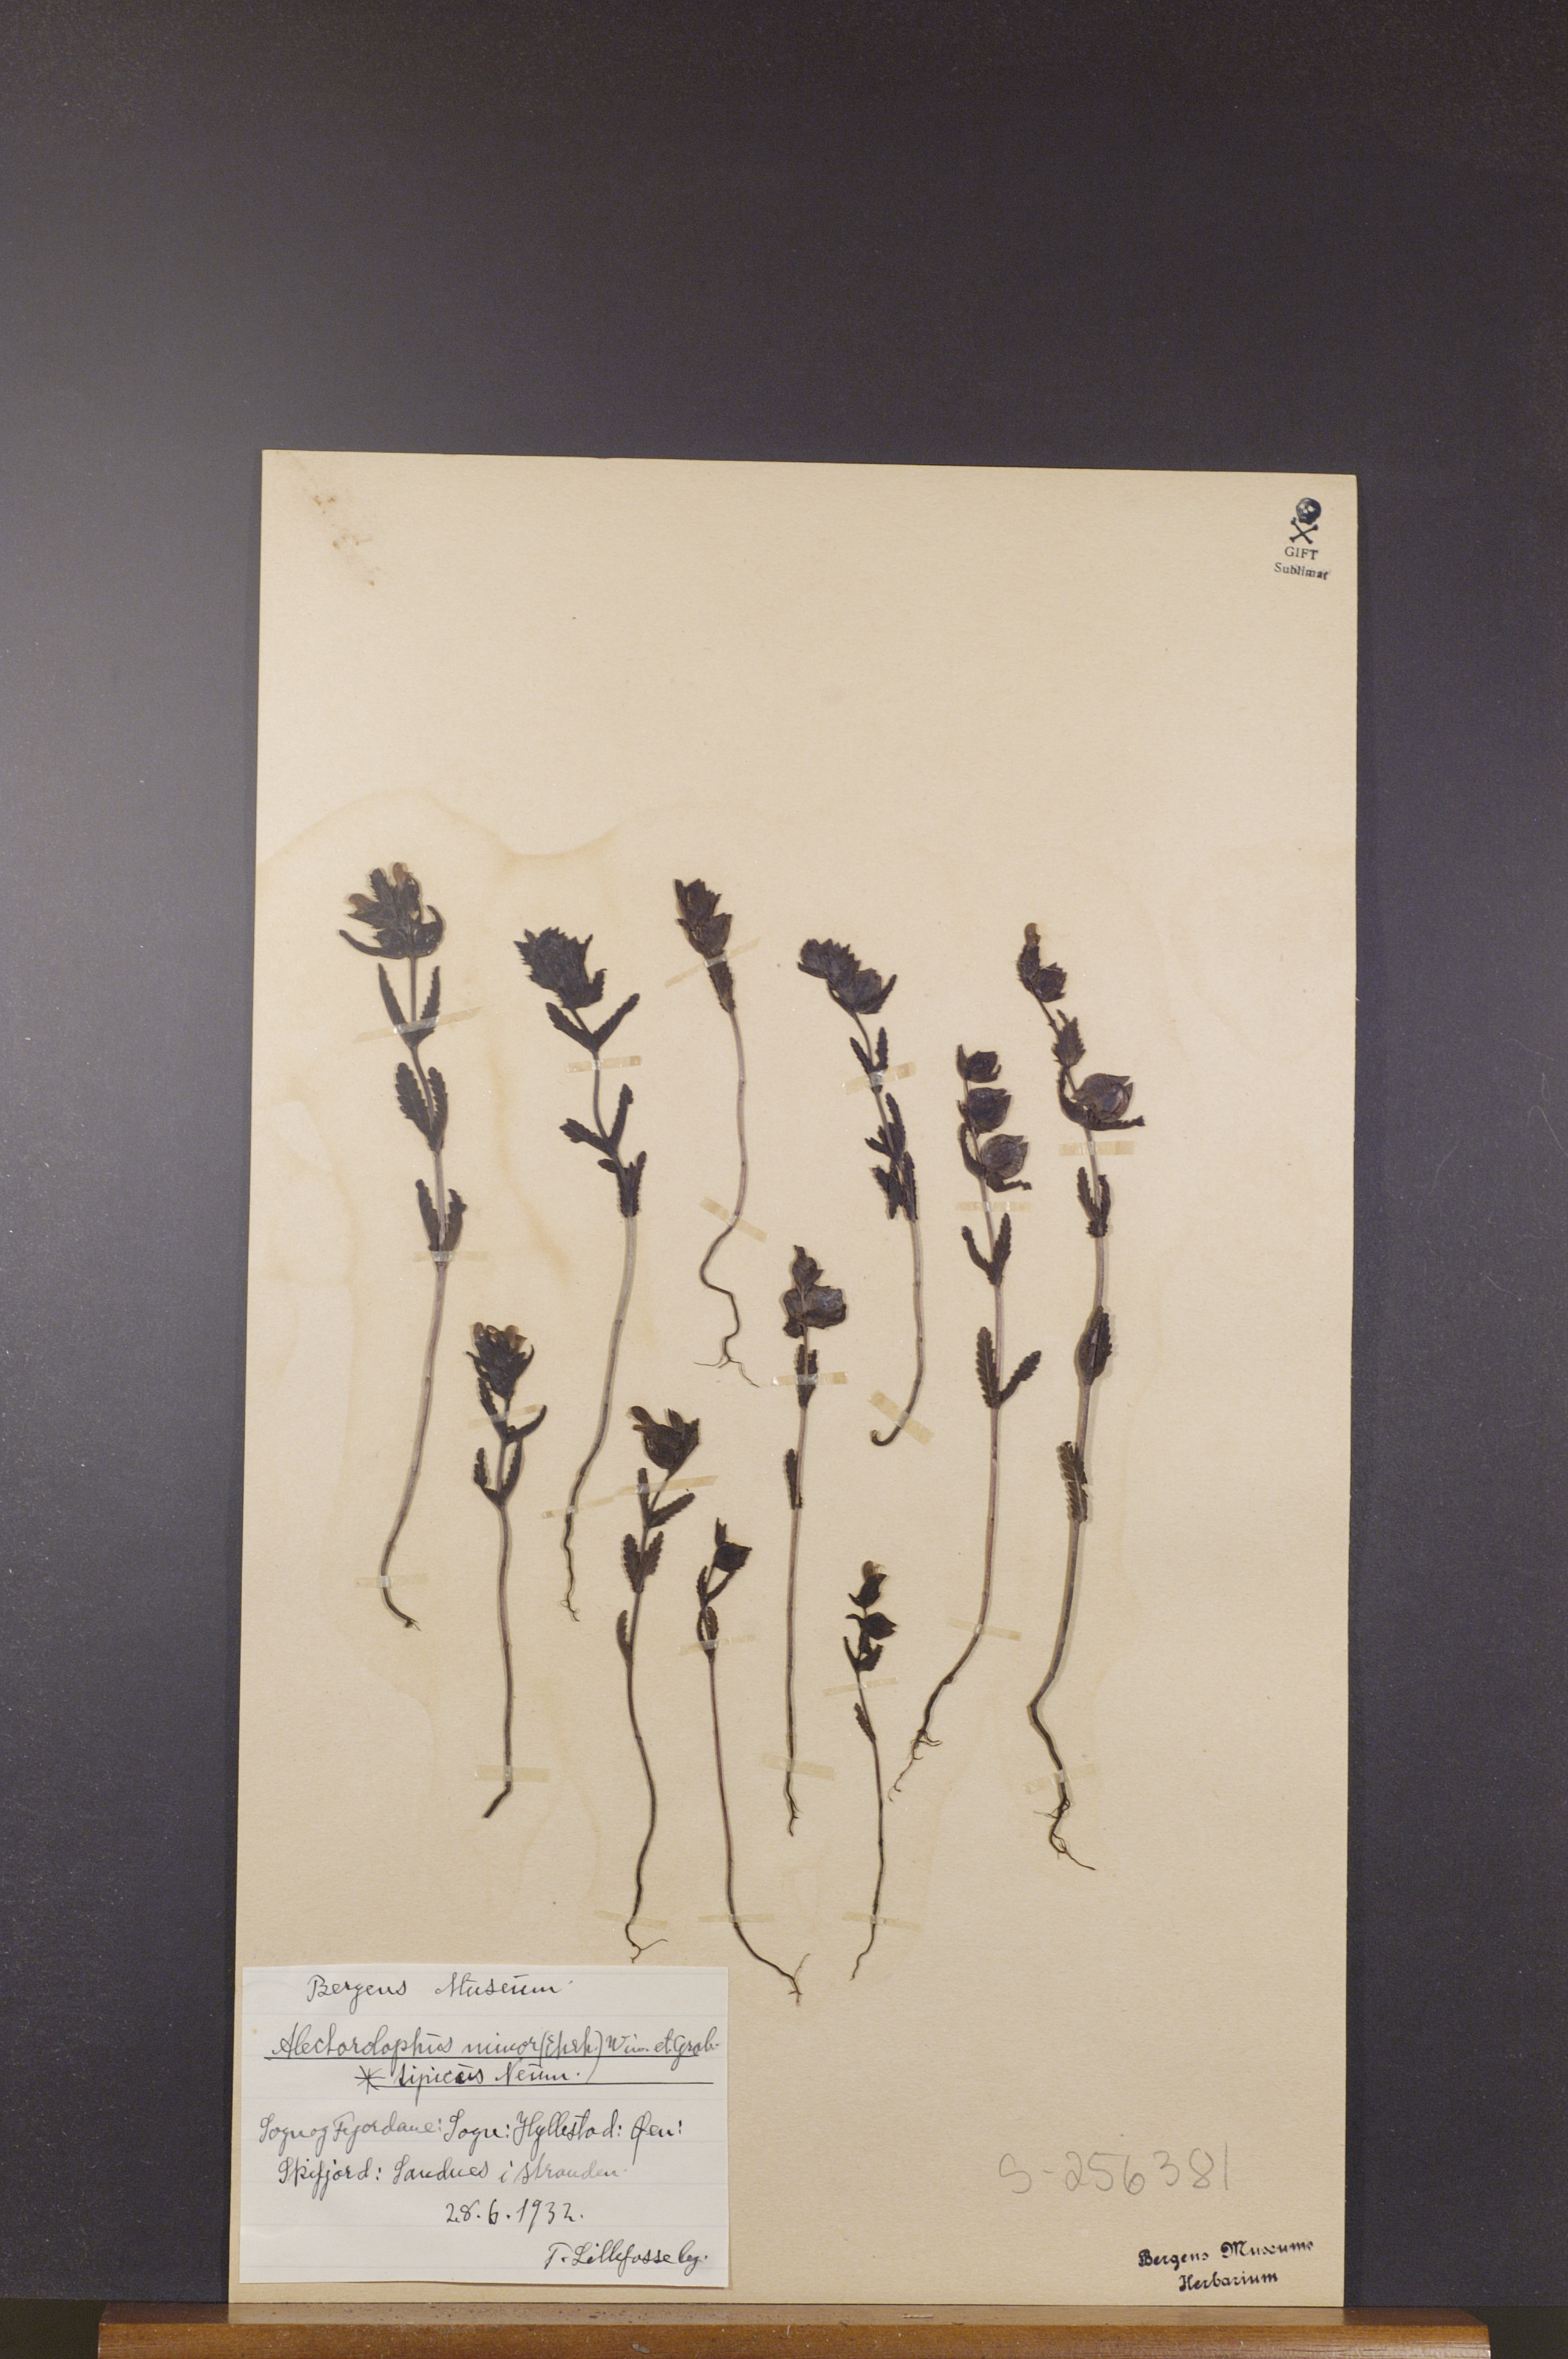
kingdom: Plantae
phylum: Tracheophyta
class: Magnoliopsida
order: Lamiales
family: Orobanchaceae
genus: Rhinanthus
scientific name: Rhinanthus minor
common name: Yellow-rattle
